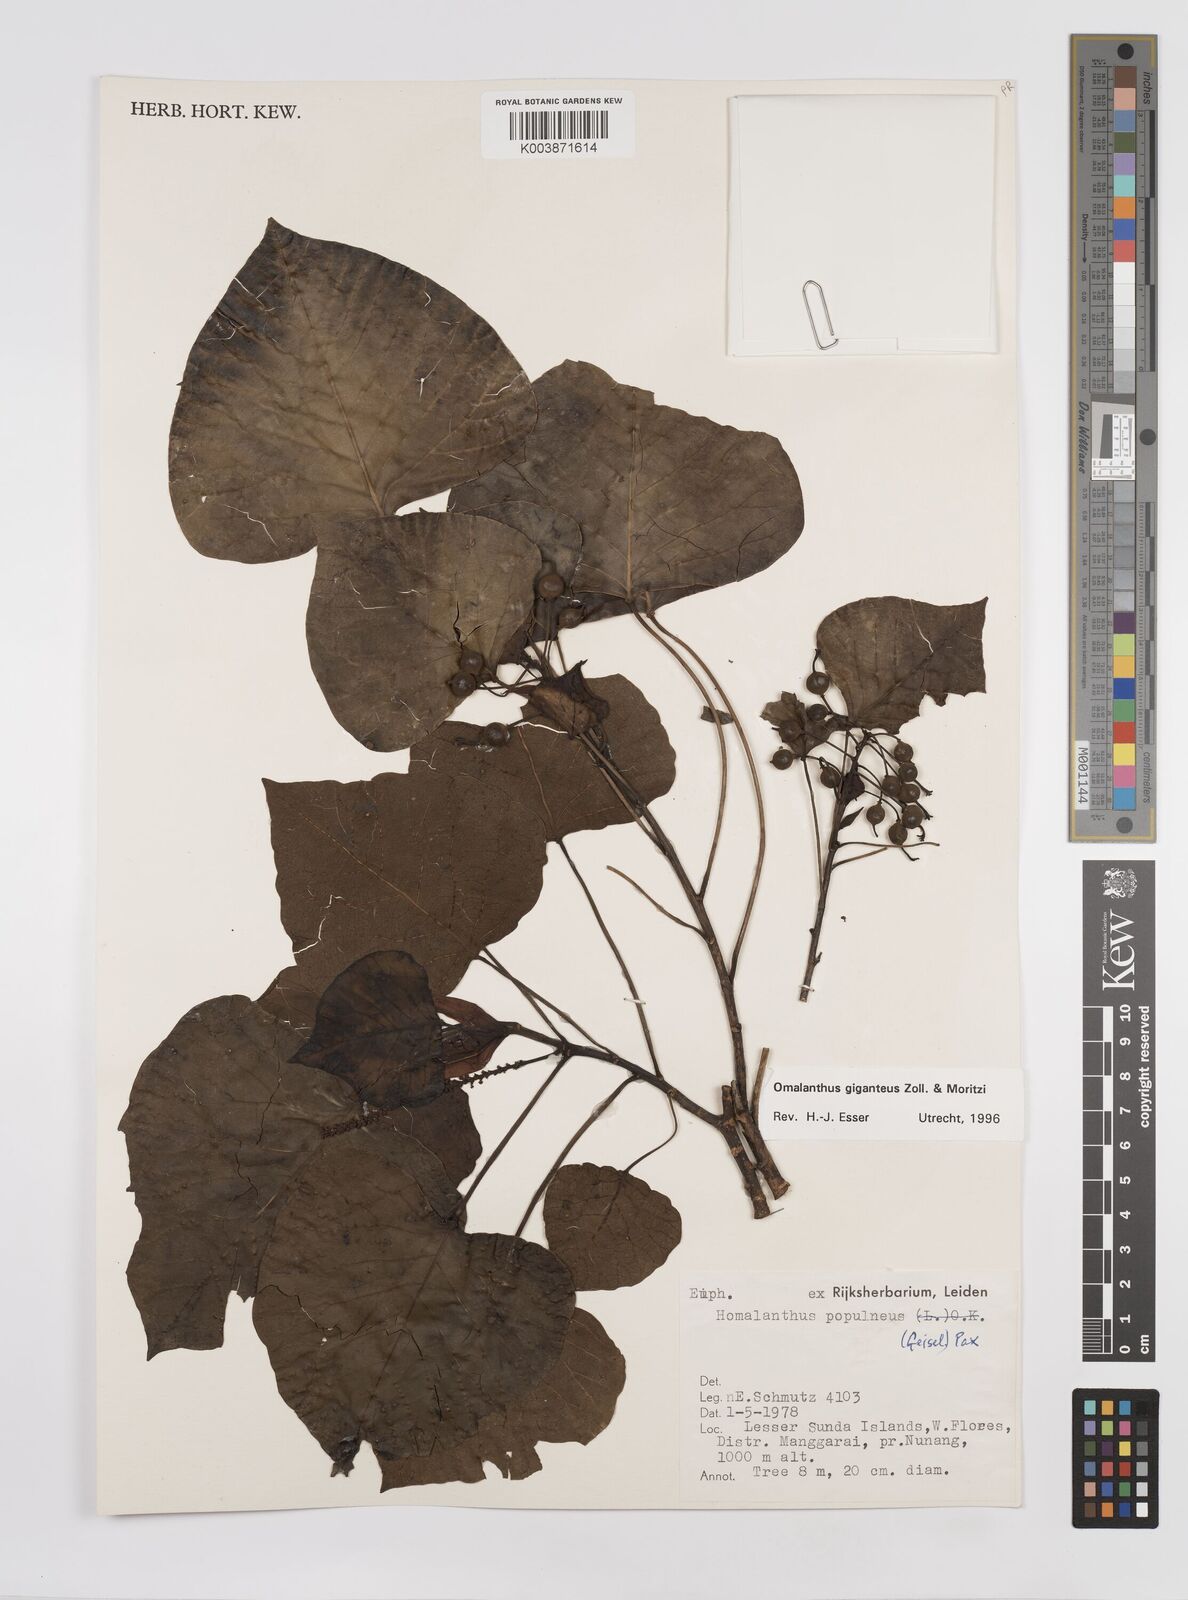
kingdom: Plantae
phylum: Tracheophyta
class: Magnoliopsida
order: Malpighiales
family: Euphorbiaceae
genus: Homalanthus
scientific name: Homalanthus giganteus
